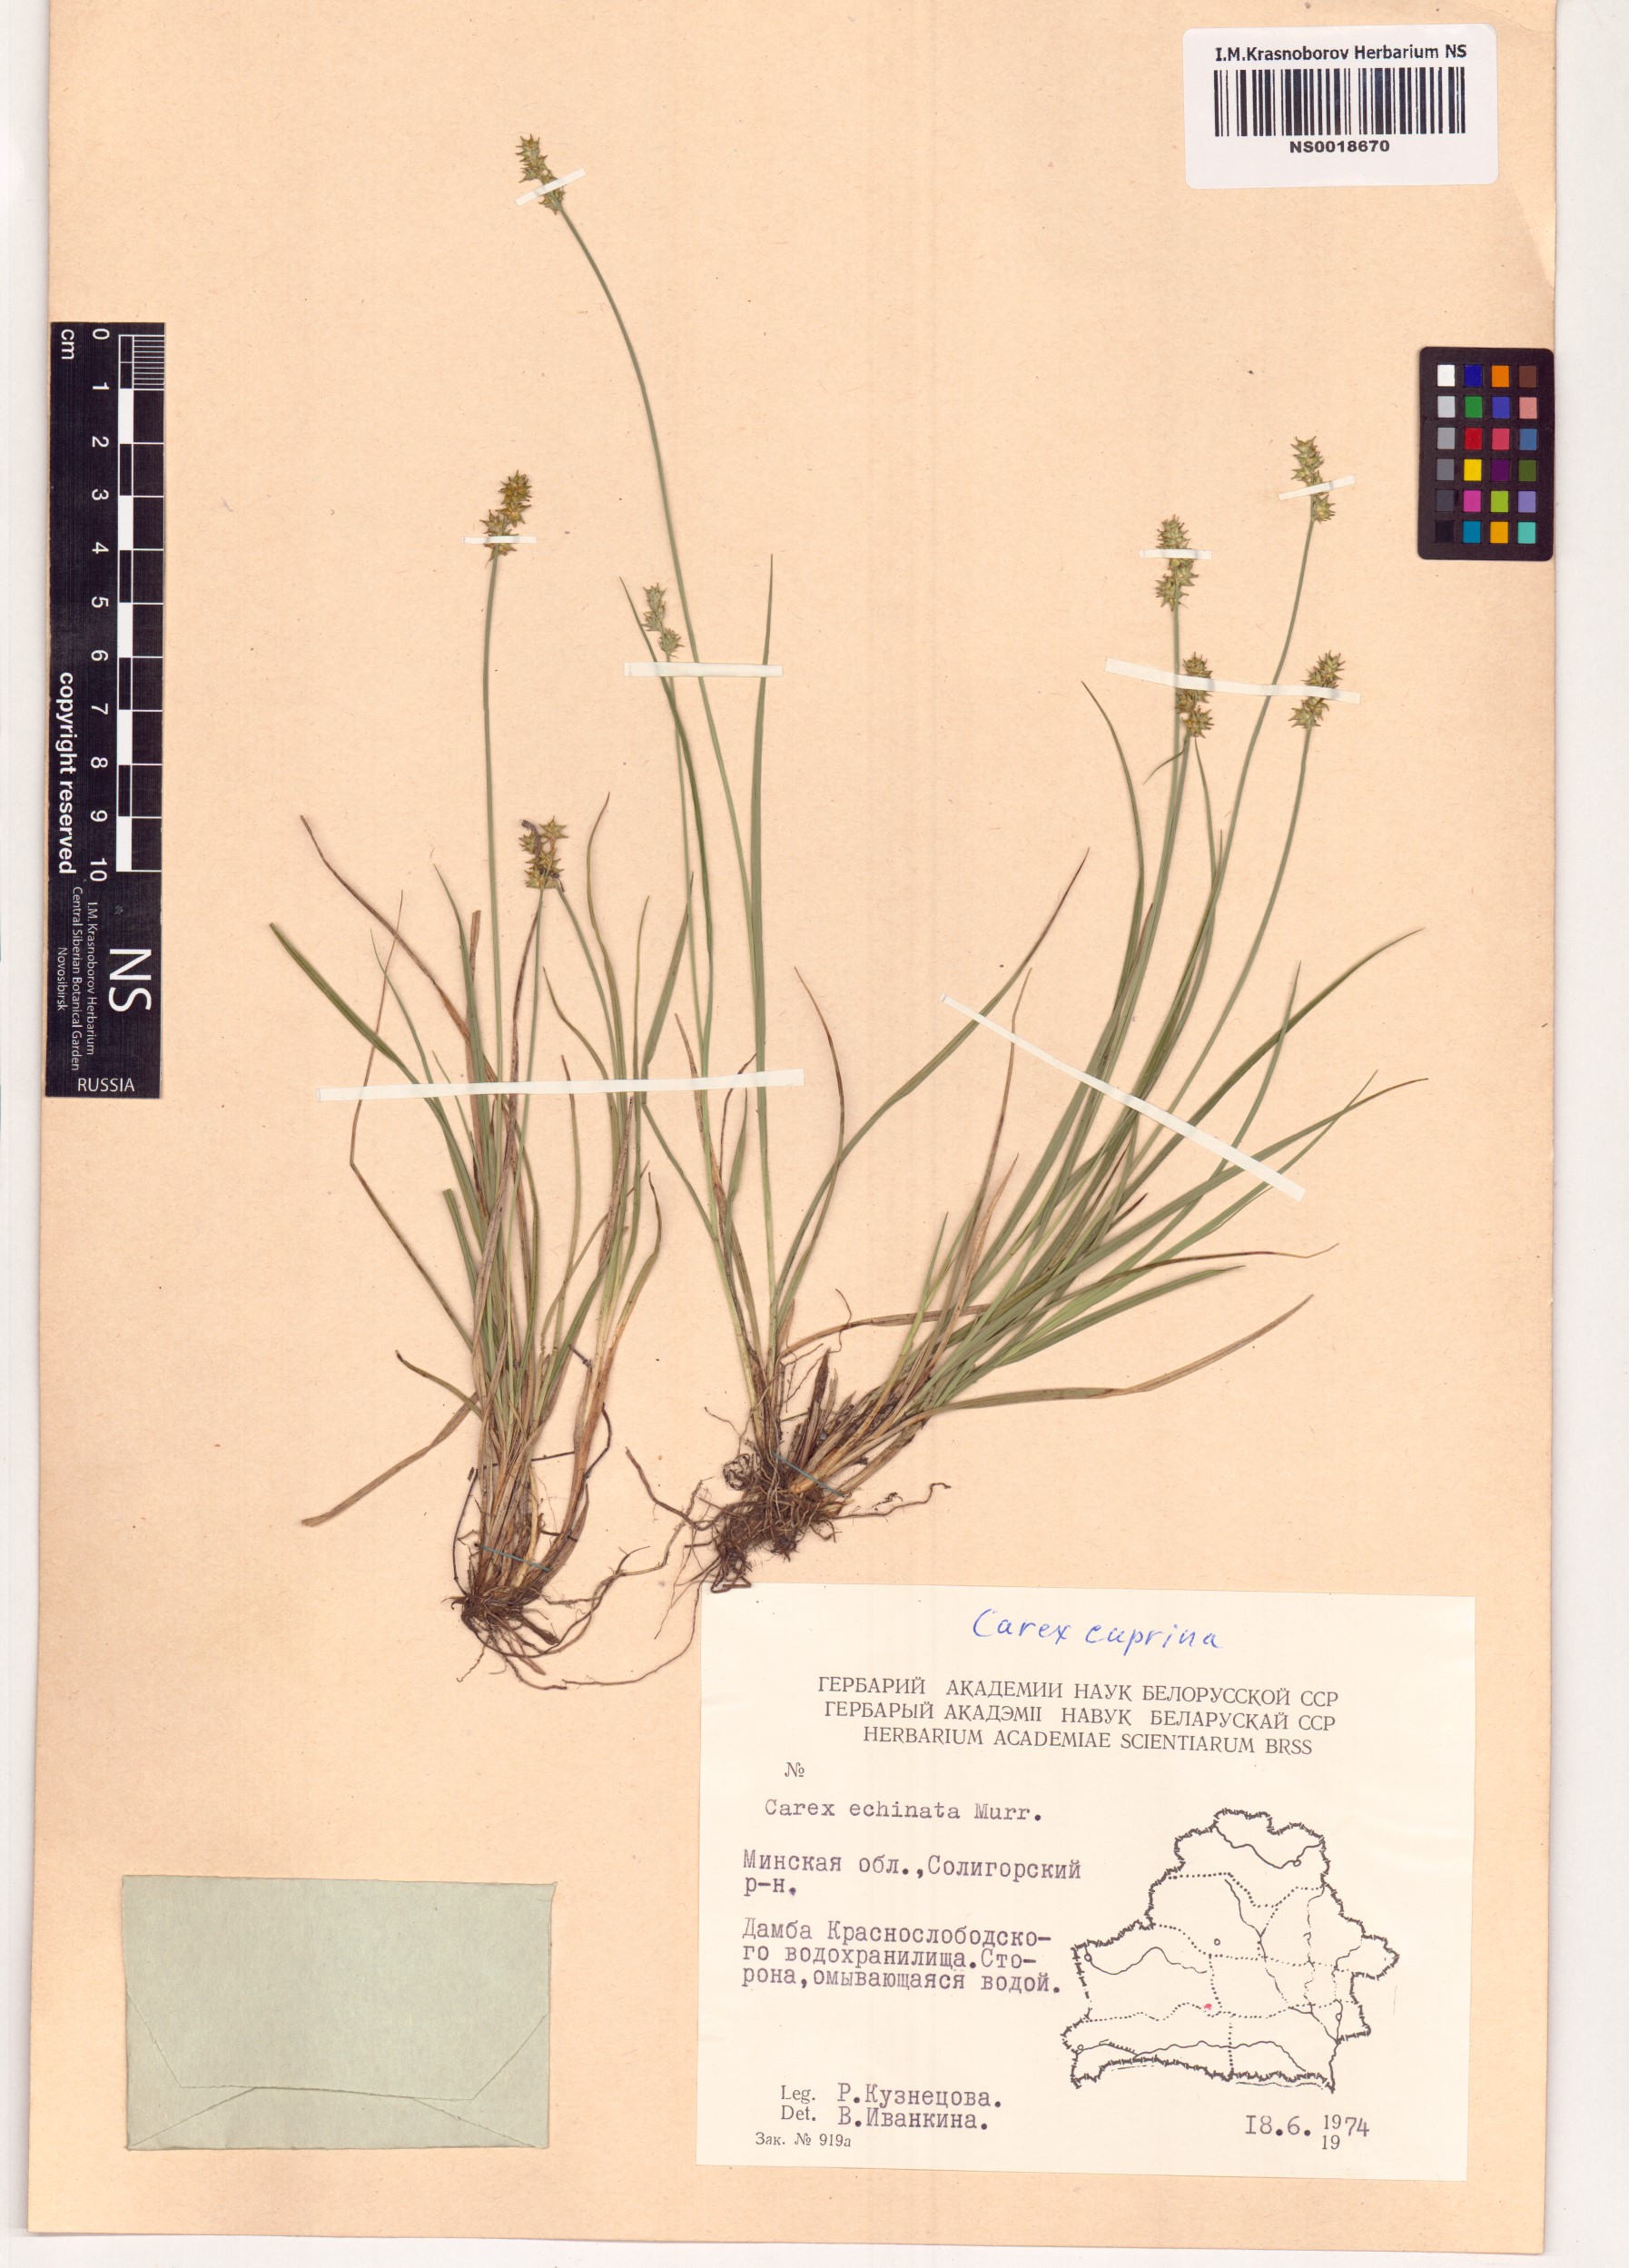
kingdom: Plantae
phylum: Tracheophyta
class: Liliopsida
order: Poales
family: Cyperaceae
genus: Carex
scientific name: Carex leersii
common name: Leers' sedge
